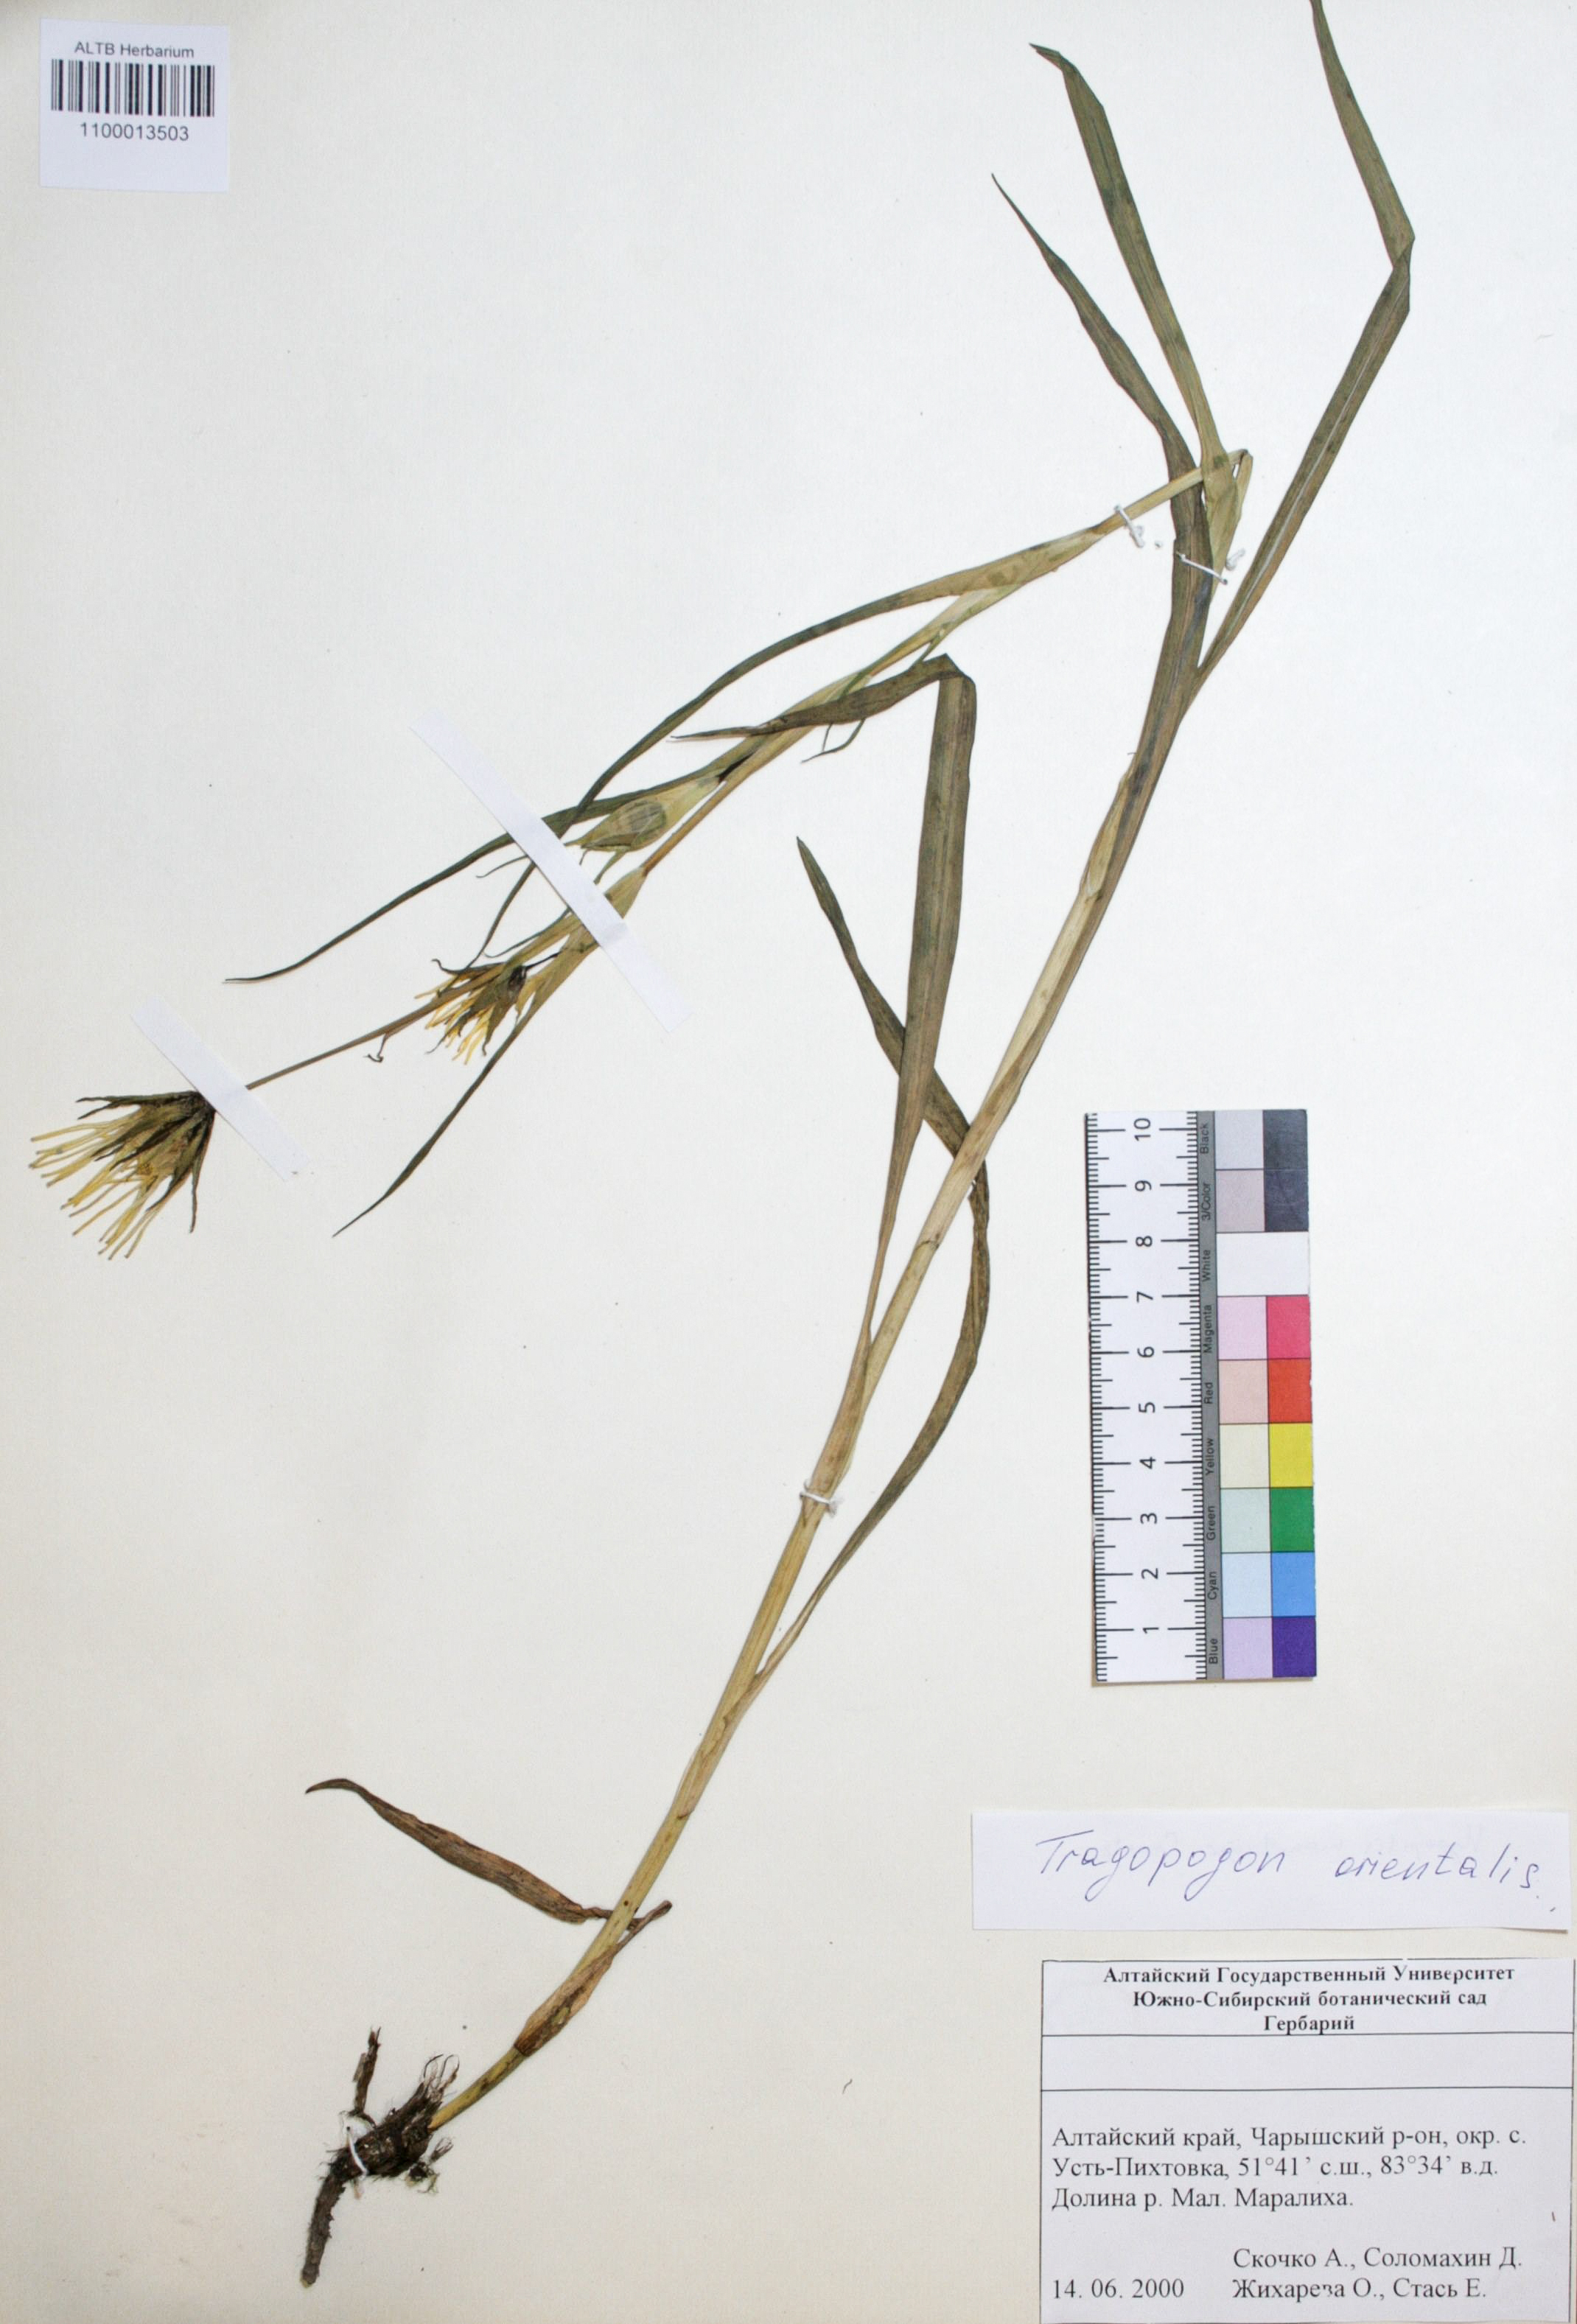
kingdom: Plantae
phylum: Tracheophyta
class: Magnoliopsida
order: Asterales
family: Asteraceae
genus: Tragopogon
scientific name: Tragopogon orientalis
